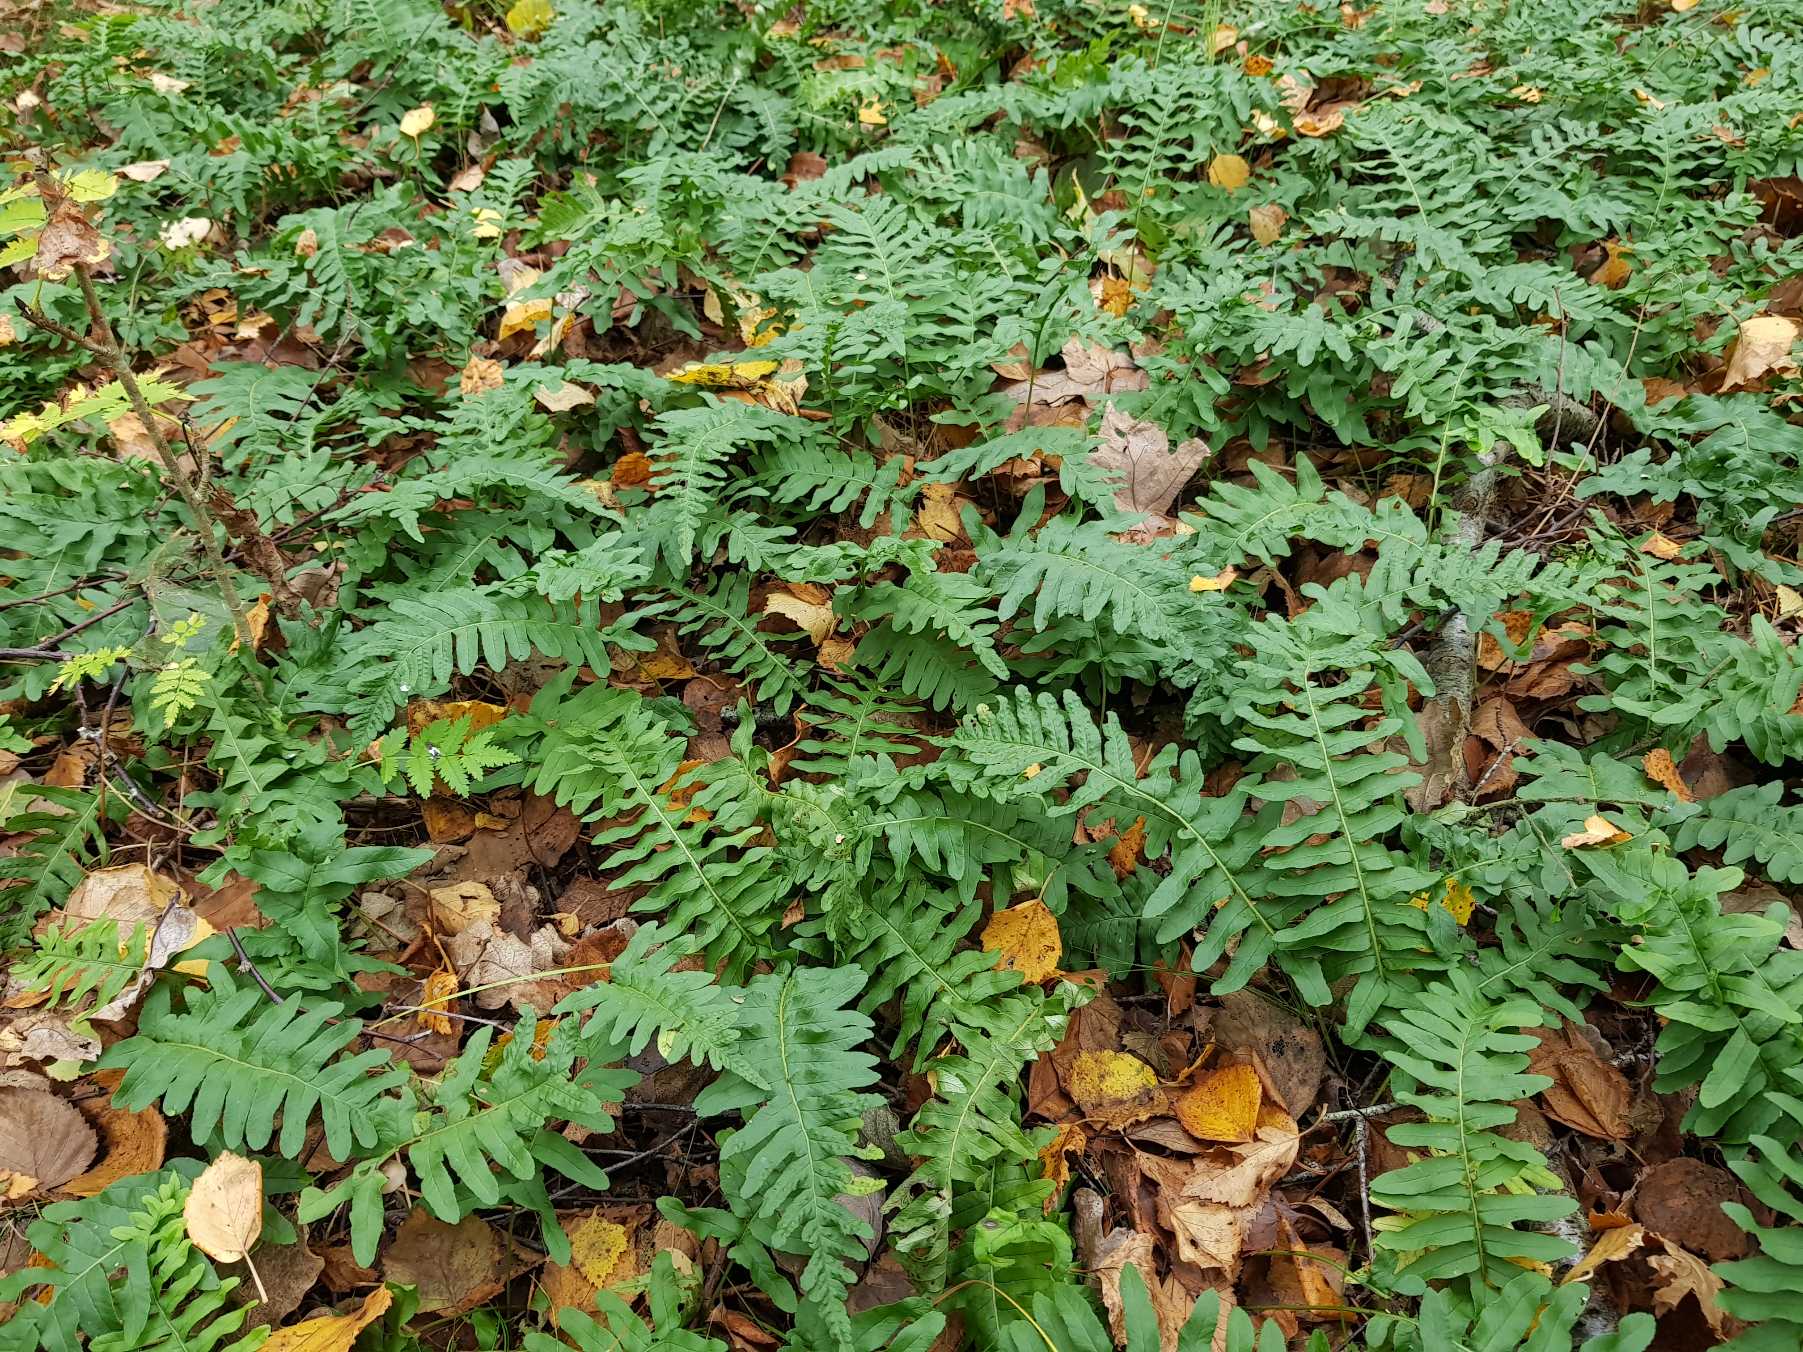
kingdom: Plantae
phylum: Tracheophyta
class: Polypodiopsida
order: Polypodiales
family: Polypodiaceae
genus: Polypodium
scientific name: Polypodium vulgare
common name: Almindelig engelsød
